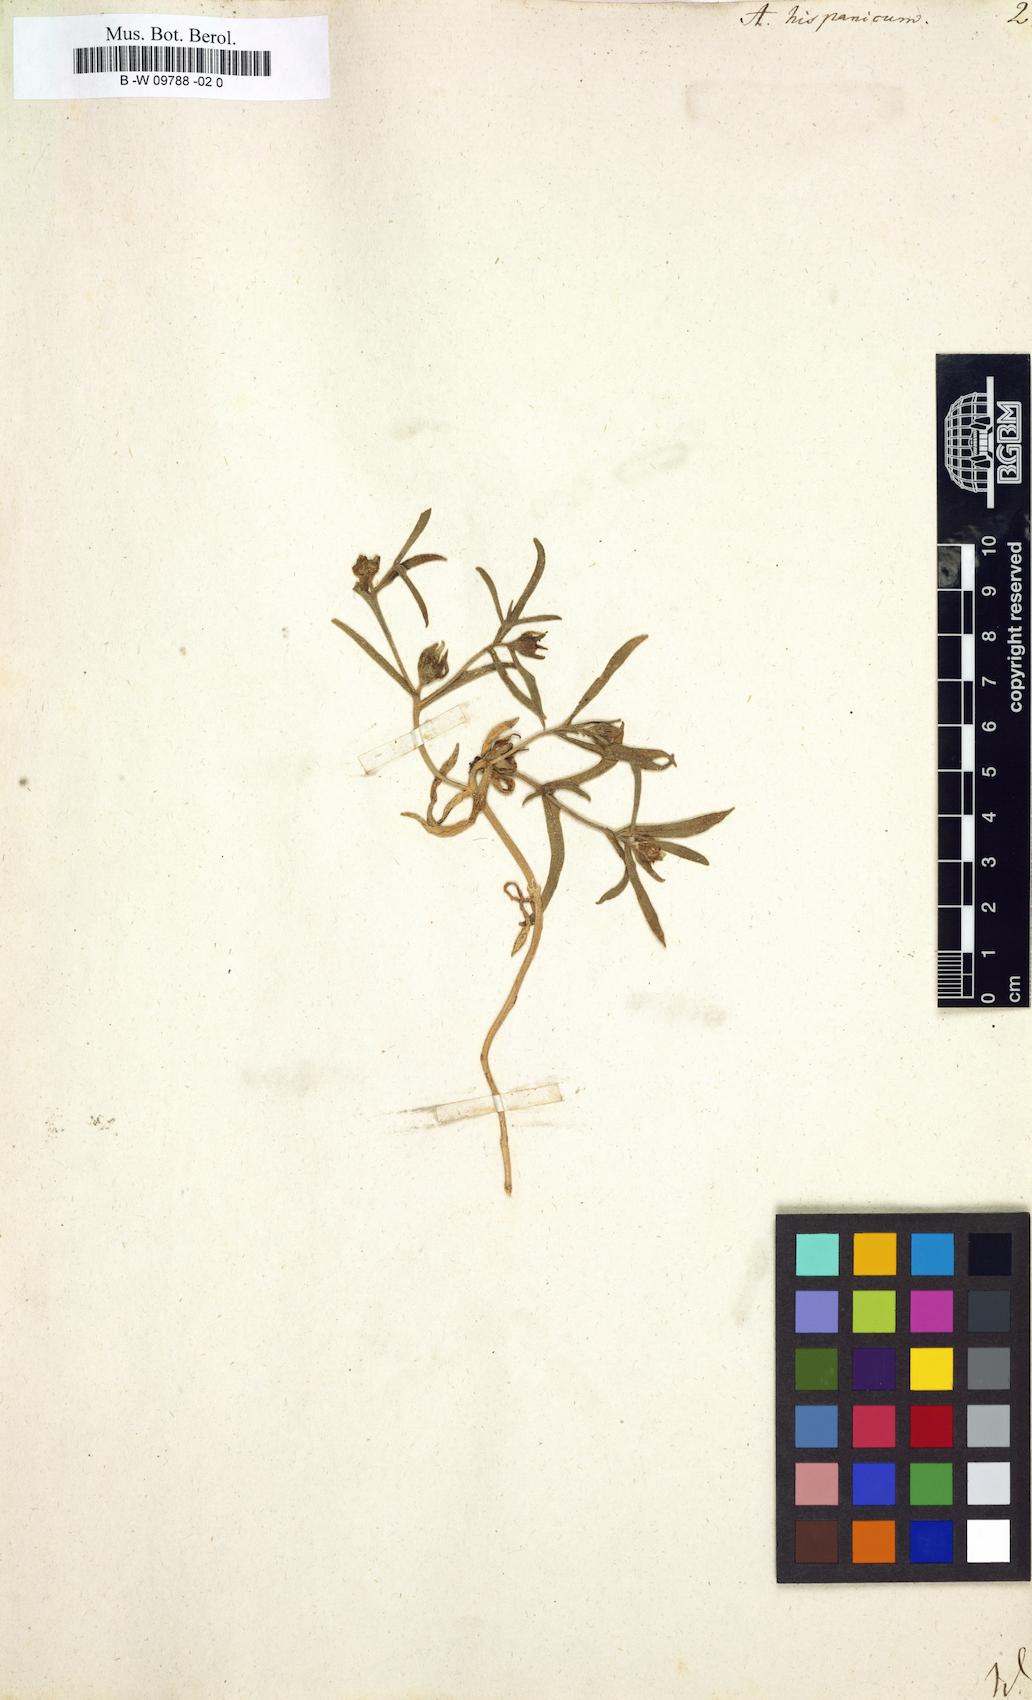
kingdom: Plantae
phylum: Tracheophyta
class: Magnoliopsida
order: Caryophyllales
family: Aizoaceae
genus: Aizoanthemopsis
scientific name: Aizoanthemopsis hispanica
